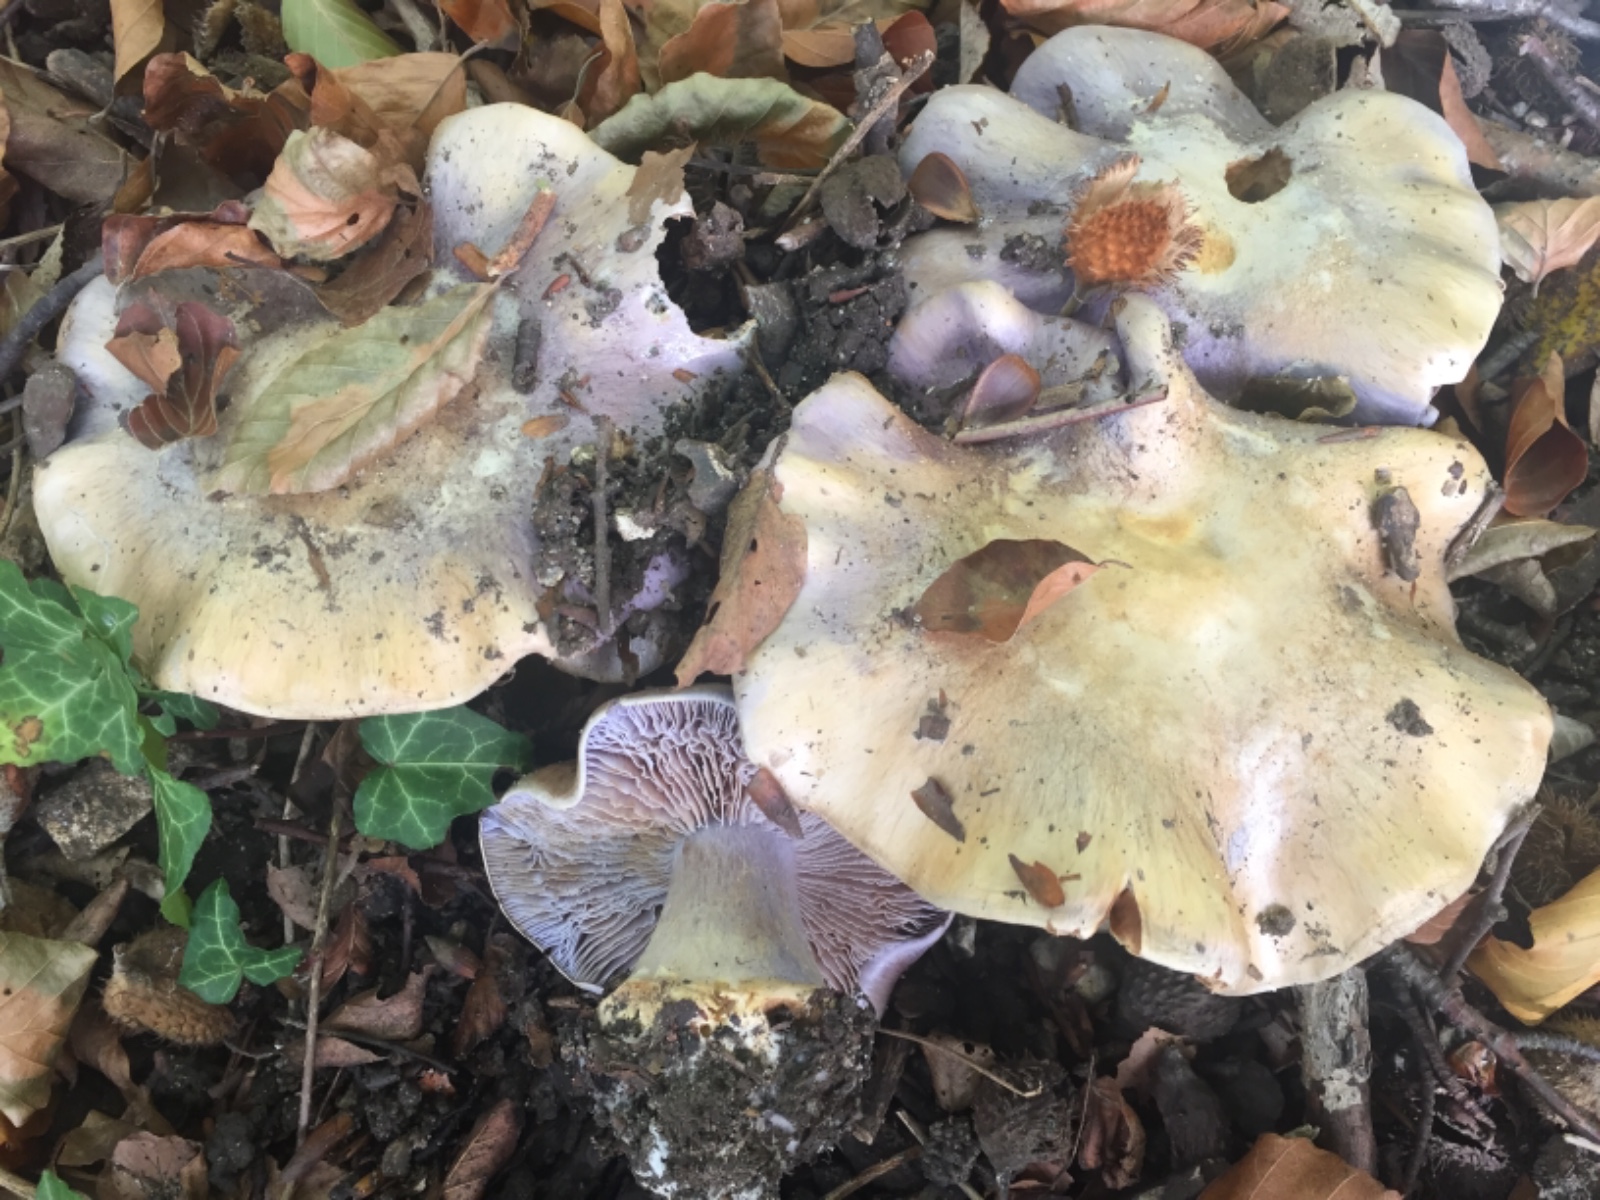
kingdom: Fungi
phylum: Basidiomycota
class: Agaricomycetes
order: Agaricales
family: Cortinariaceae
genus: Cortinarius
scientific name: Cortinarius caerulescens
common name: blåkødet slørhat
